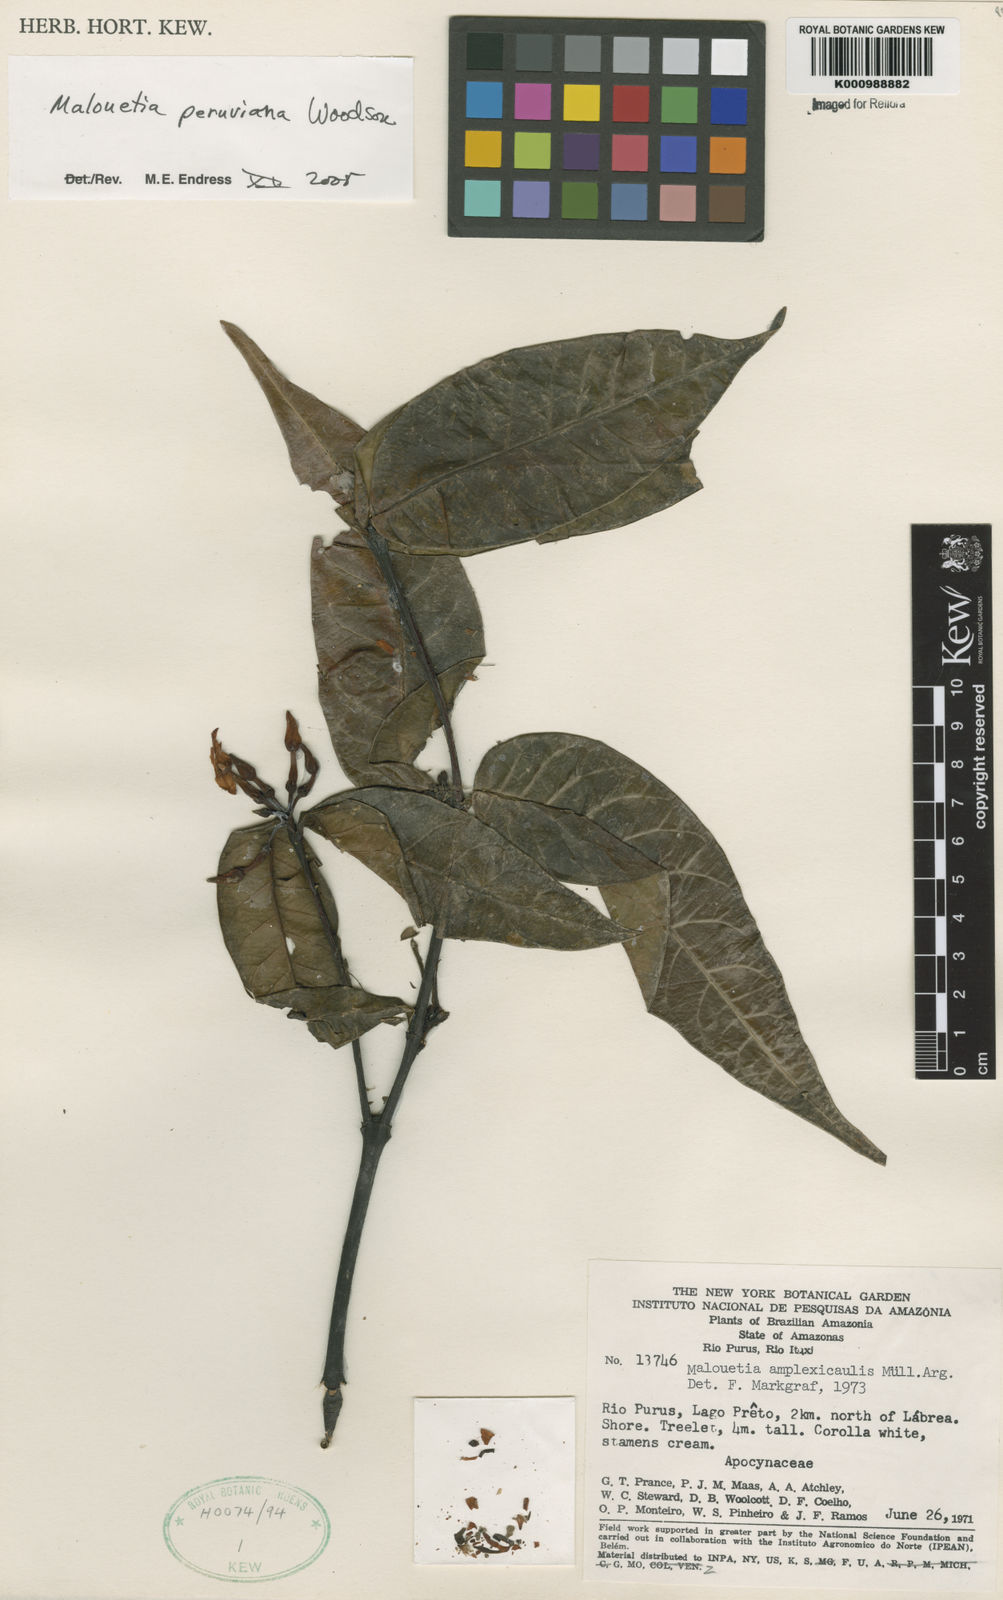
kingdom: Plantae
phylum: Tracheophyta
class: Magnoliopsida
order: Gentianales
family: Apocynaceae
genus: Malouetia
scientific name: Malouetia tamaquarina
